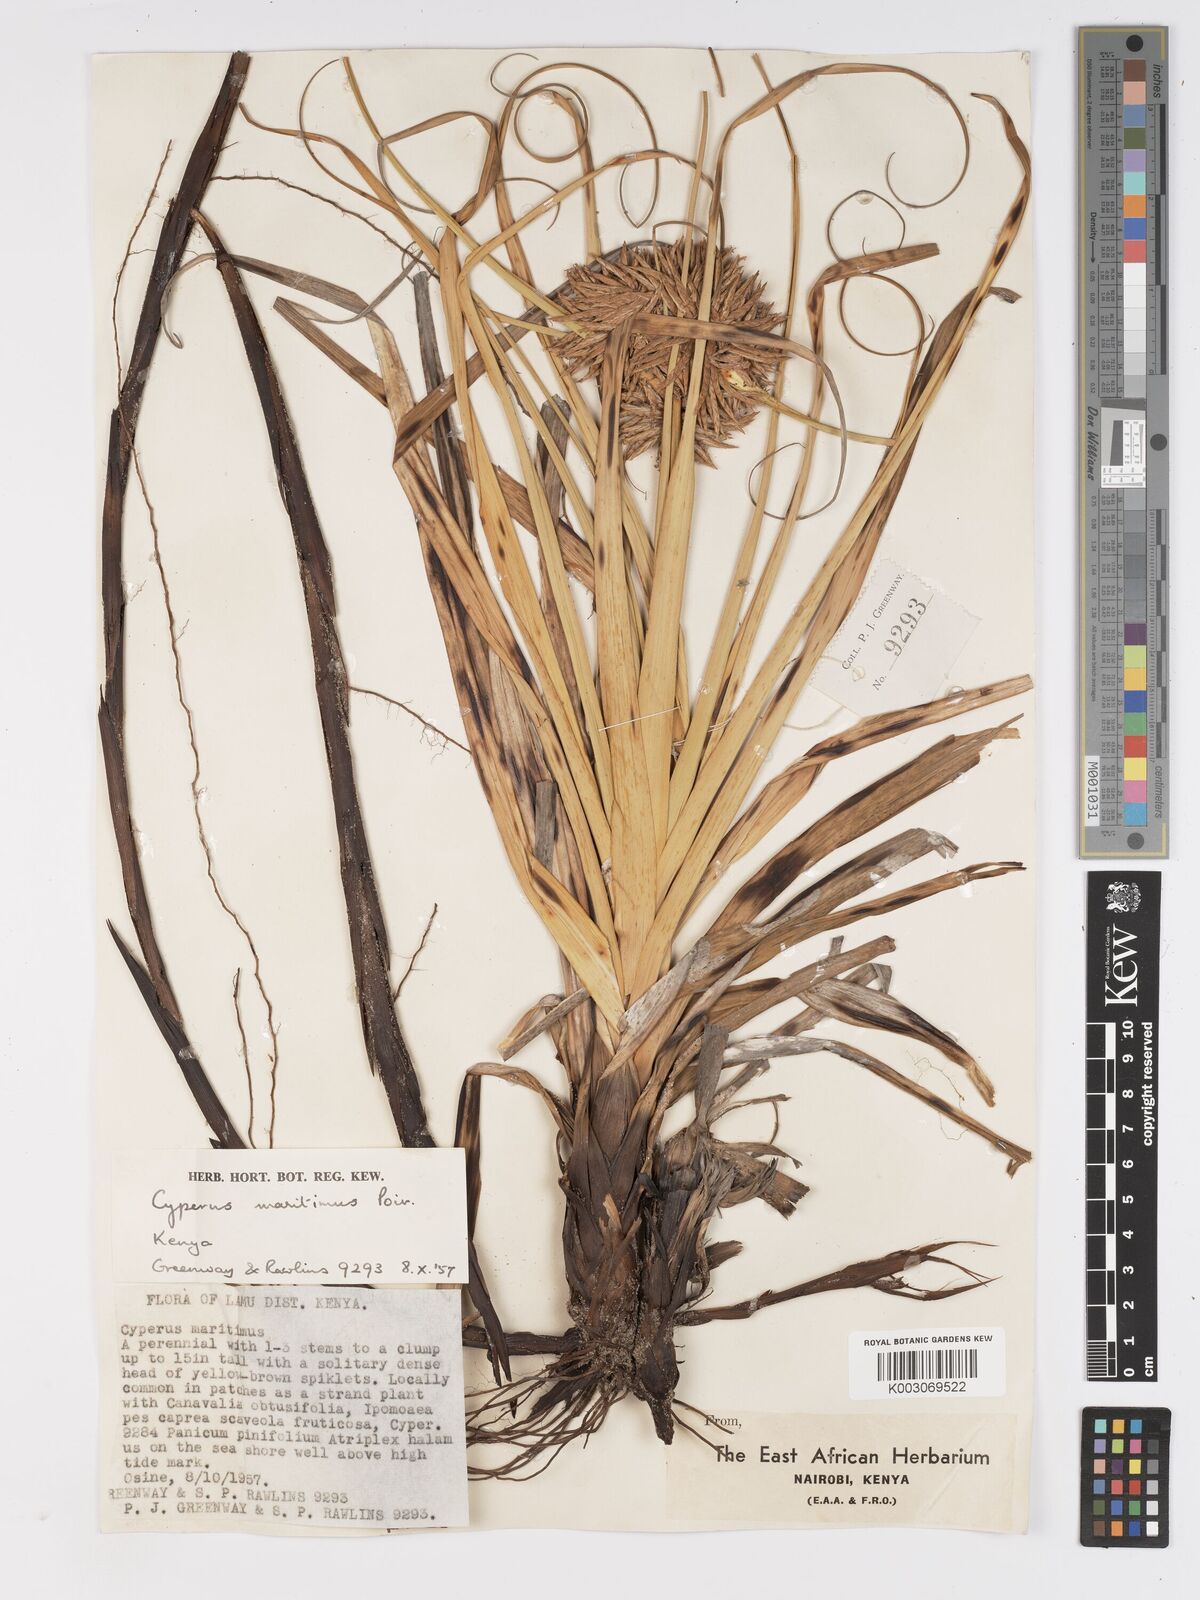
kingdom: Plantae
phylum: Tracheophyta
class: Liliopsida
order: Poales
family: Cyperaceae
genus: Cyperus
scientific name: Cyperus crassipes
